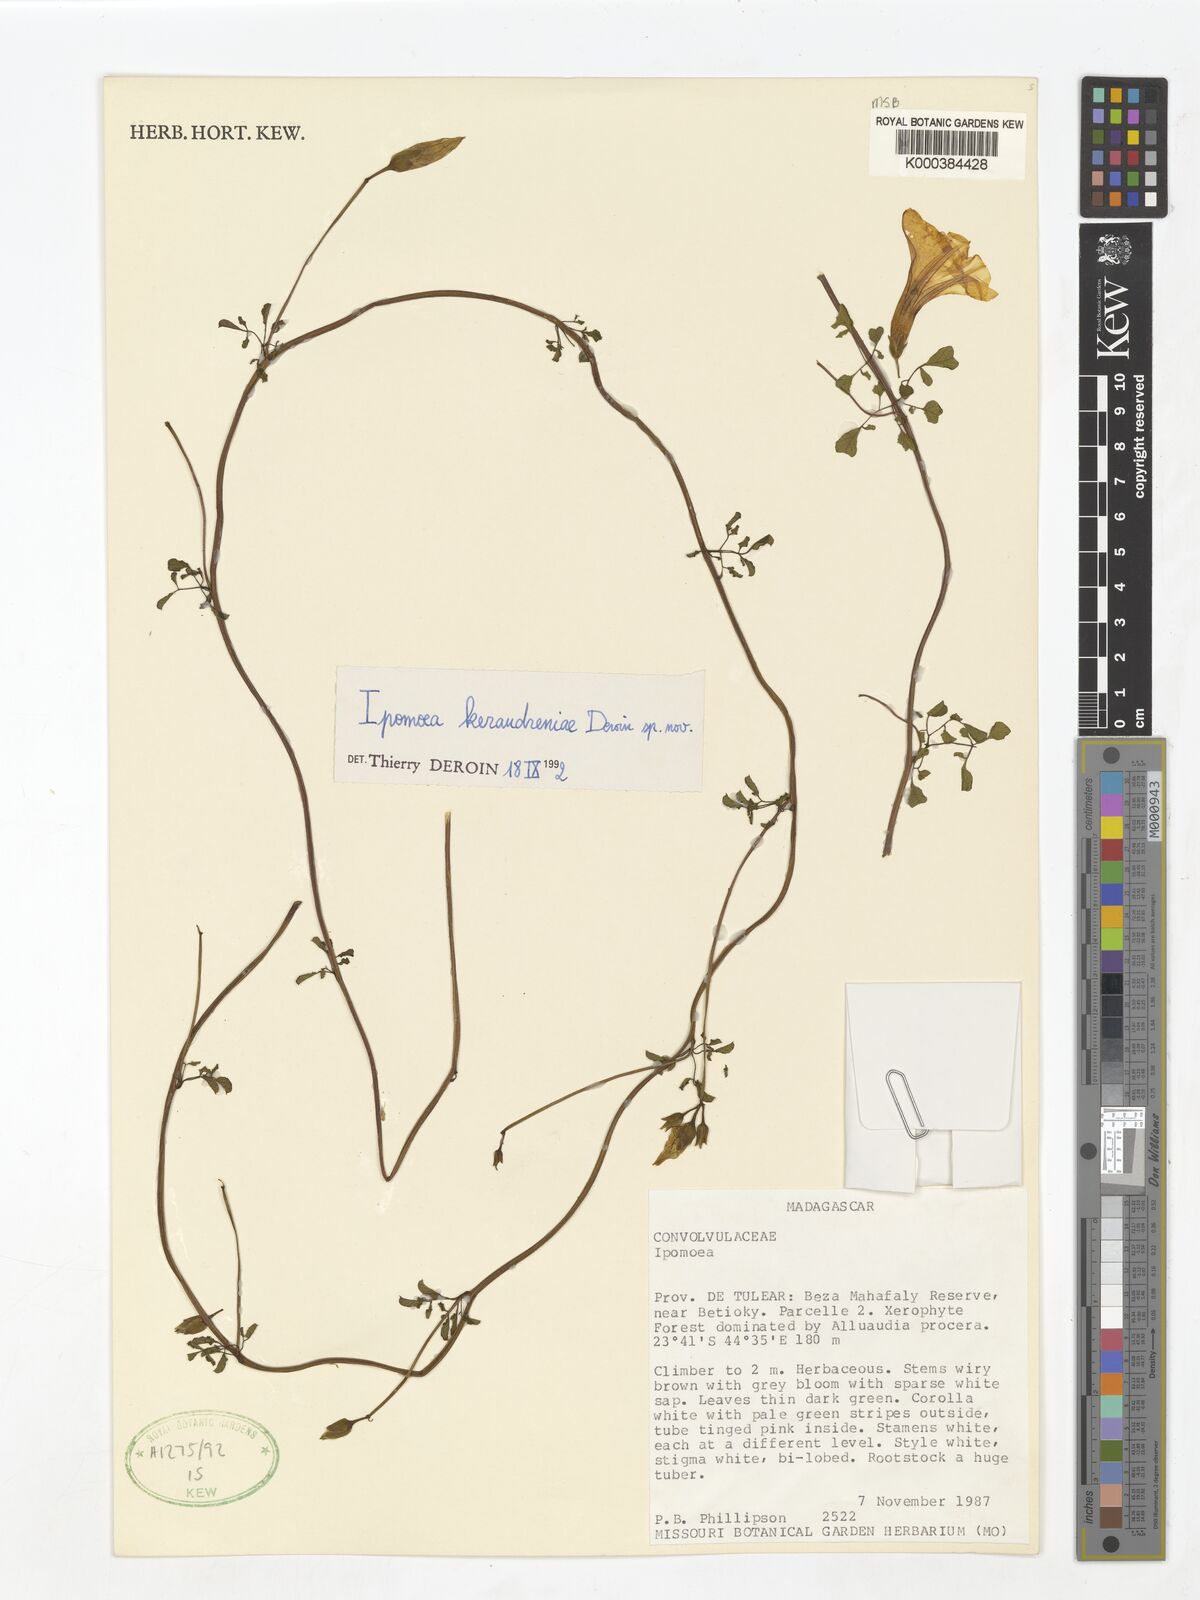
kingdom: Plantae
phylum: Tracheophyta
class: Magnoliopsida
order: Solanales
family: Convolvulaceae
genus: Ipomoea
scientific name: Ipomoea keraudreniae
